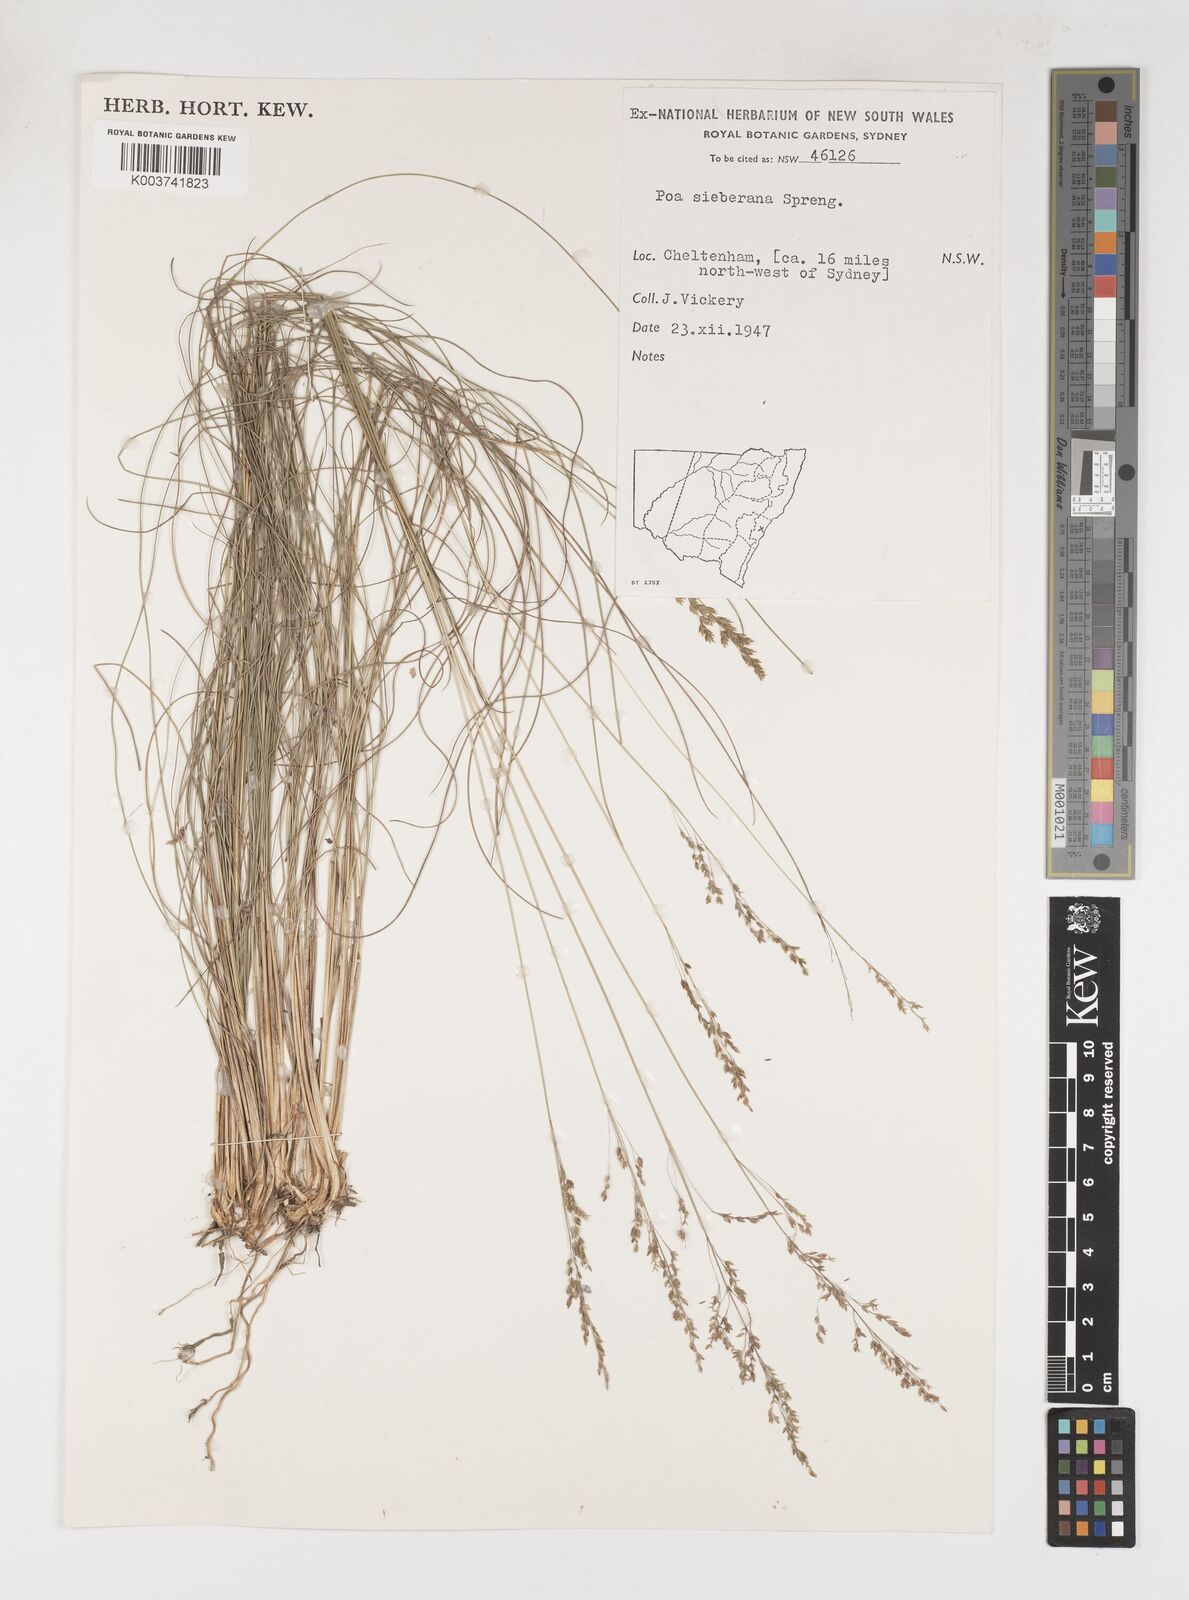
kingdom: Plantae
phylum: Tracheophyta
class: Liliopsida
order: Poales
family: Poaceae
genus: Poa
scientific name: Poa sieberiana
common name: Tussock poa
